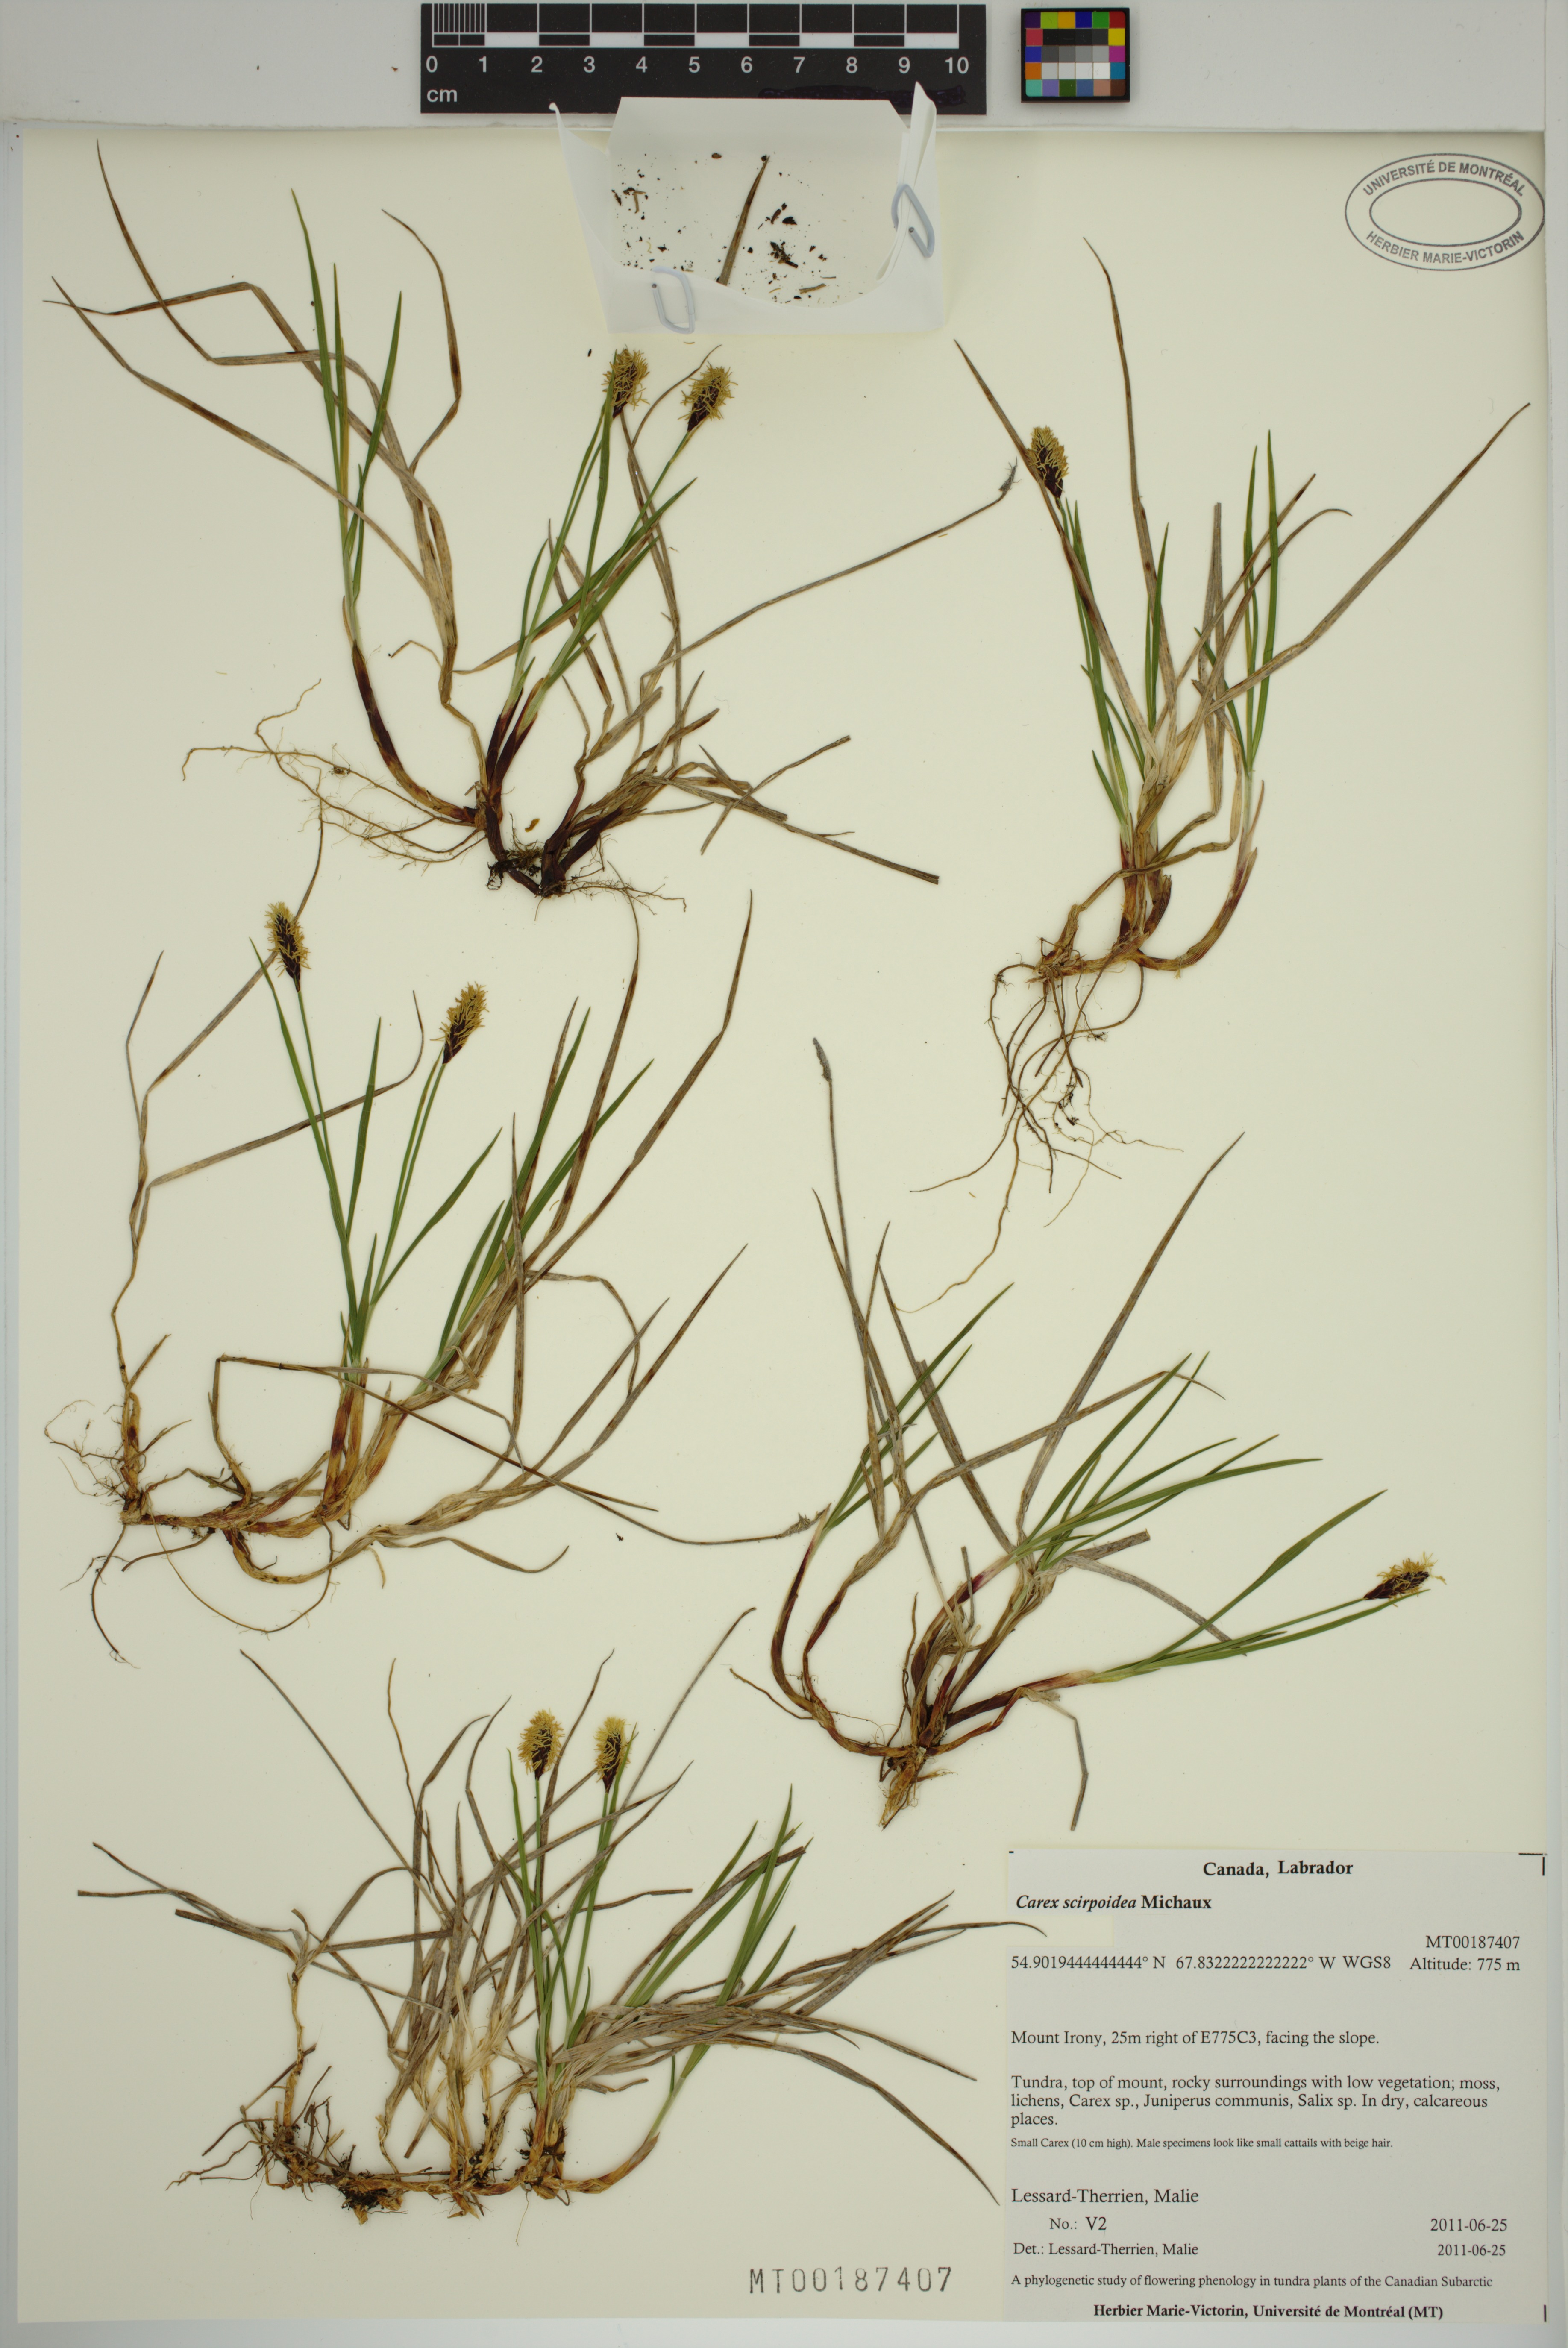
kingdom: Plantae
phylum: Tracheophyta
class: Liliopsida
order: Poales
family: Cyperaceae
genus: Carex
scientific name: Carex scirpoidea
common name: Canada single-spike sedge
